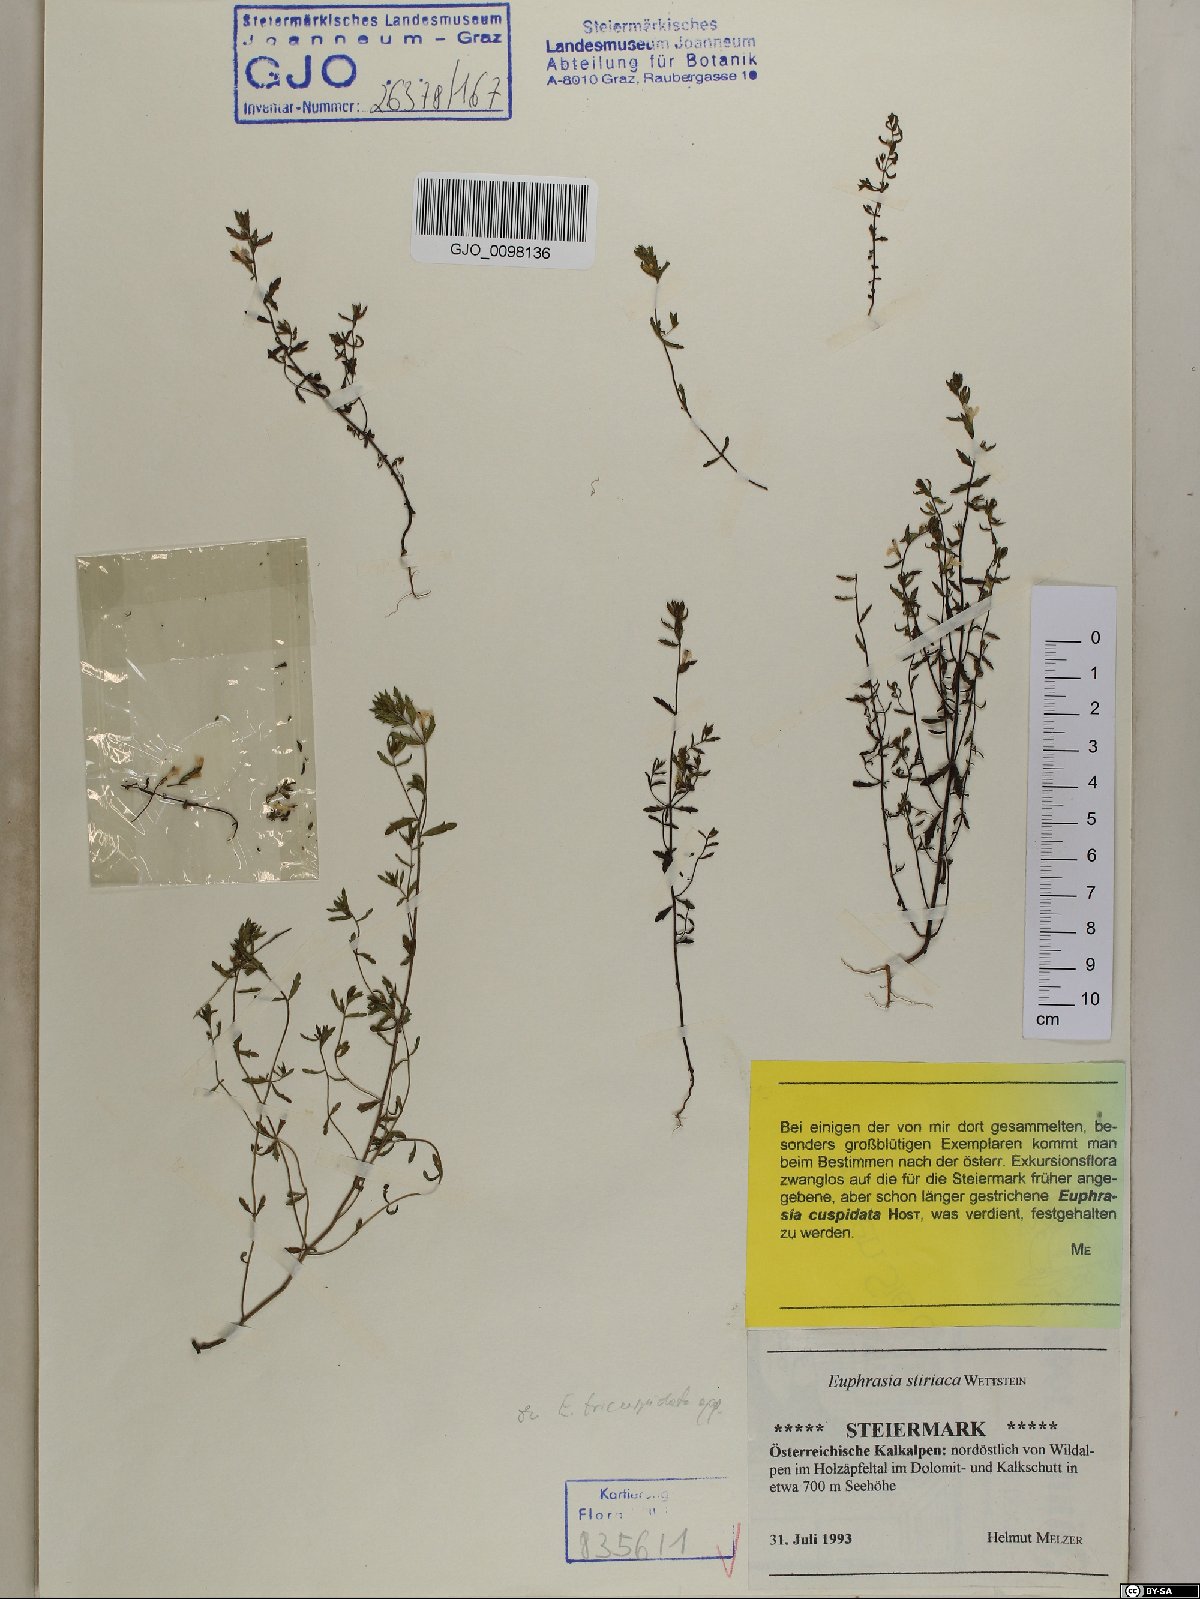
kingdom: Plantae
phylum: Tracheophyta
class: Magnoliopsida
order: Lamiales
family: Orobanchaceae
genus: Euphrasia
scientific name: Euphrasia cuspidata
